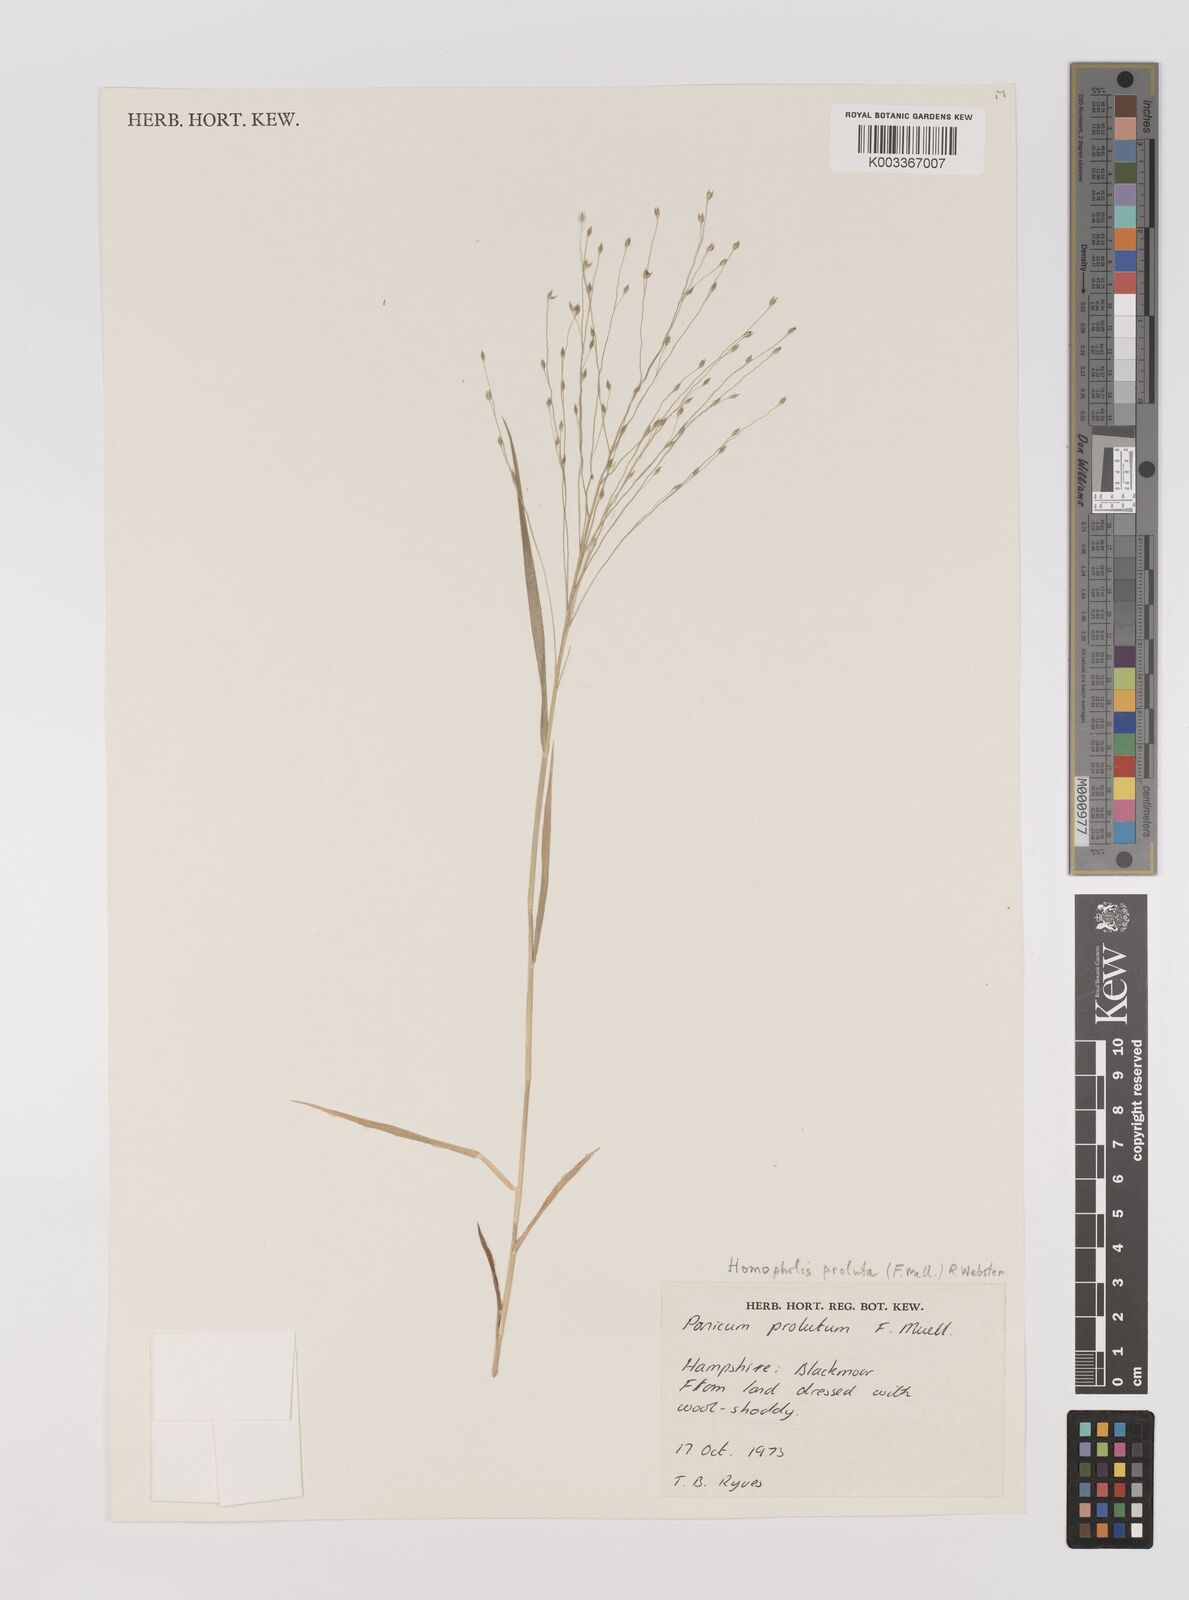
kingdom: Plantae
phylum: Tracheophyta
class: Liliopsida
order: Poales
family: Poaceae
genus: Walwhalleya
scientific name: Walwhalleya proluta
